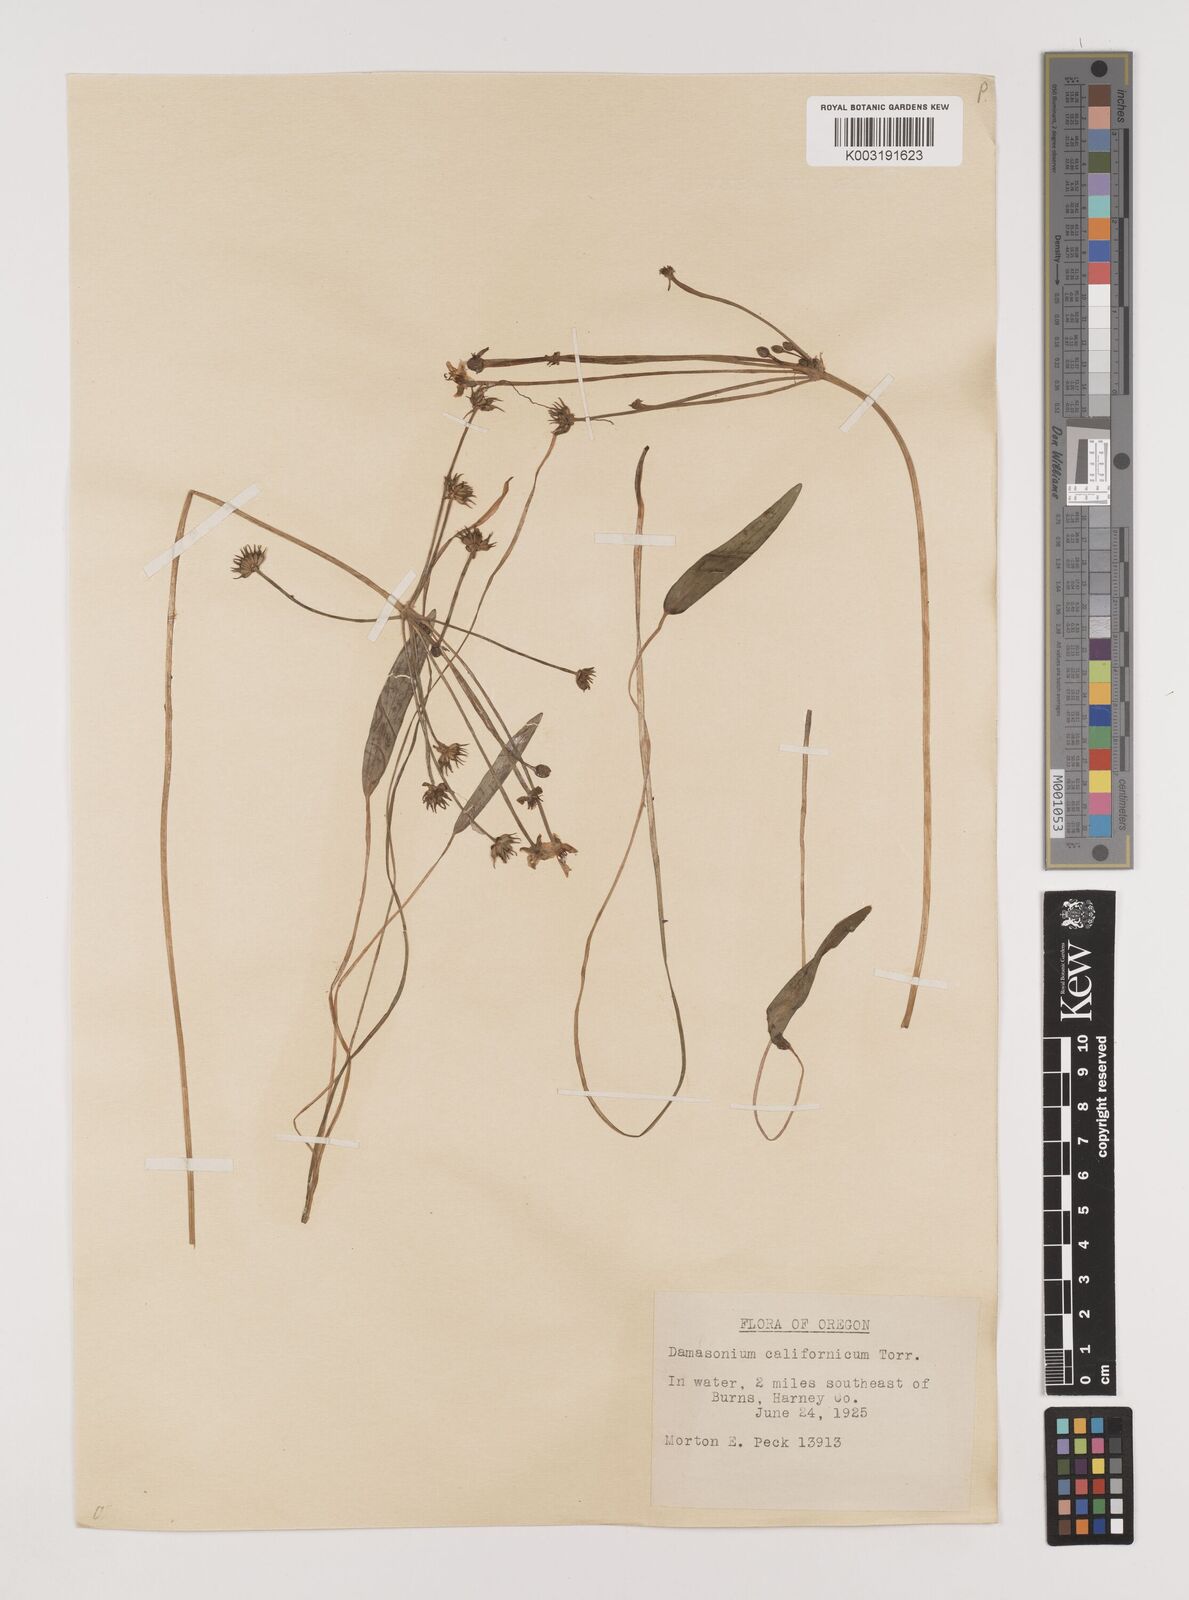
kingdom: Plantae
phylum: Tracheophyta
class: Liliopsida
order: Alismatales
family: Alismataceae
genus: Damasonium
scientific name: Damasonium
